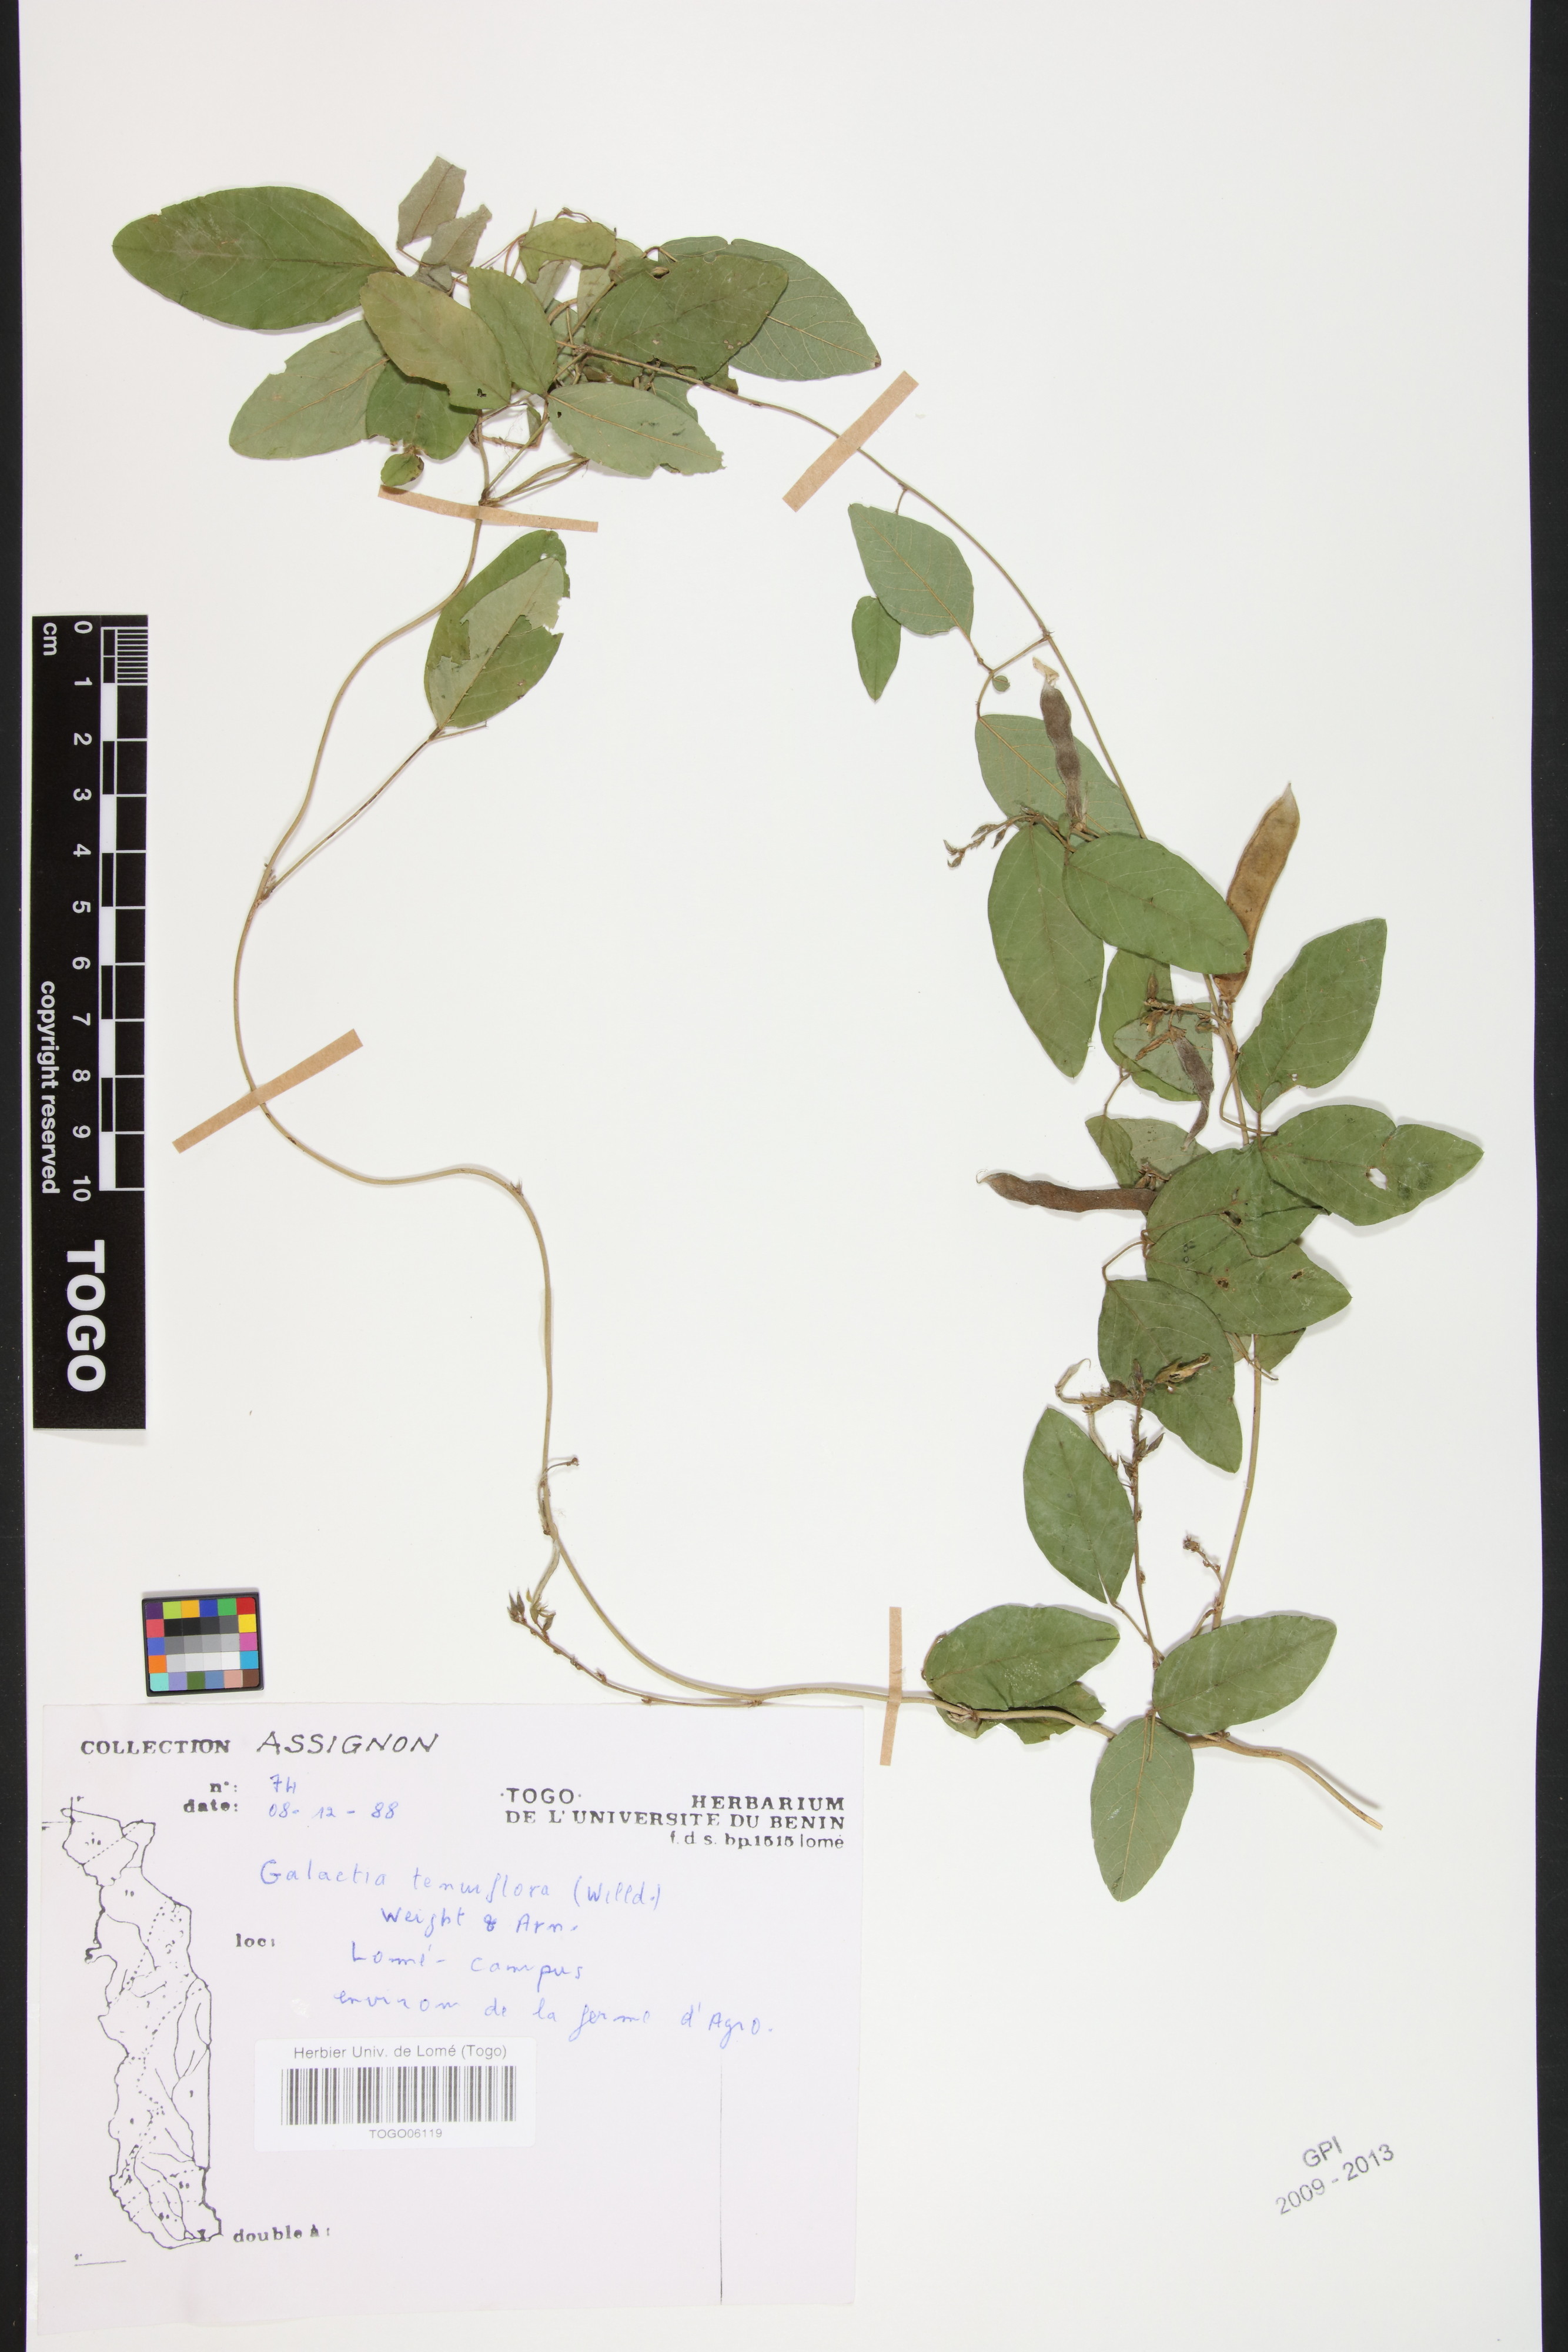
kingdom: Plantae
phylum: Tracheophyta
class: Magnoliopsida
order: Fabales
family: Fabaceae
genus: Galactia
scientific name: Galactia striata
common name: Florida hammock milkpea
